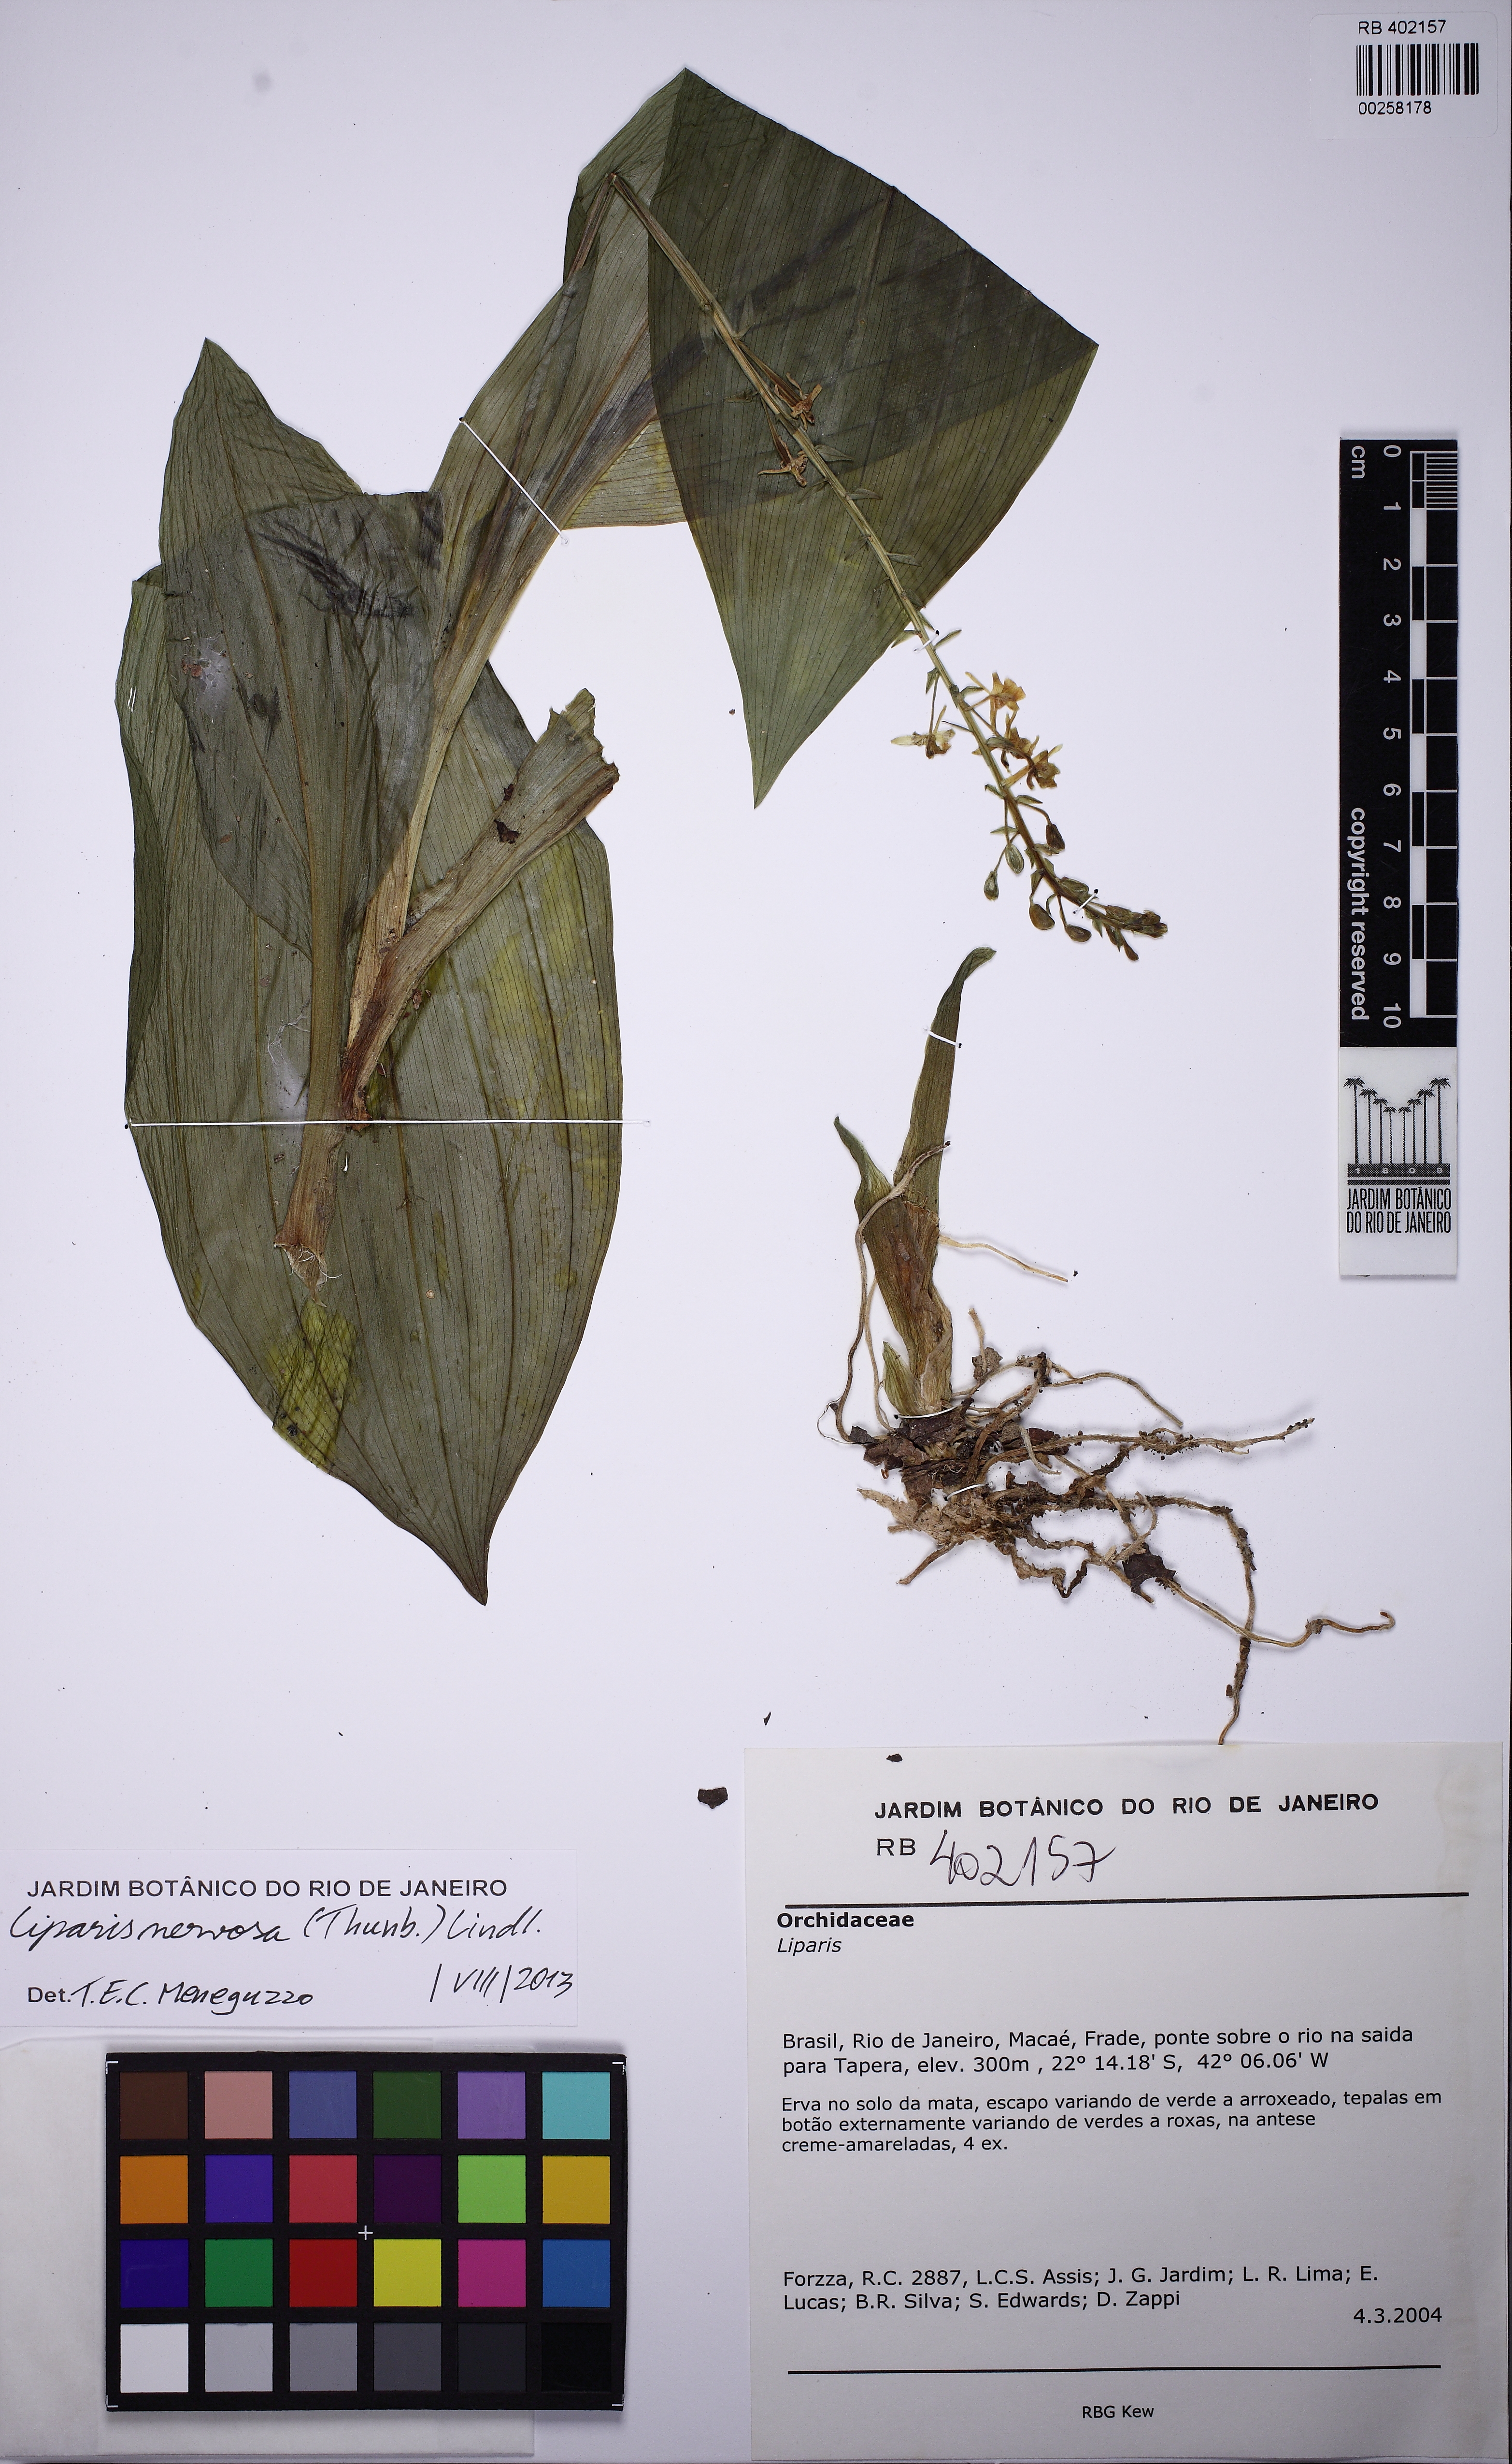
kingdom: Plantae
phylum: Tracheophyta
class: Liliopsida
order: Asparagales
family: Orchidaceae
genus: Liparis
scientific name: Liparis nervosa
